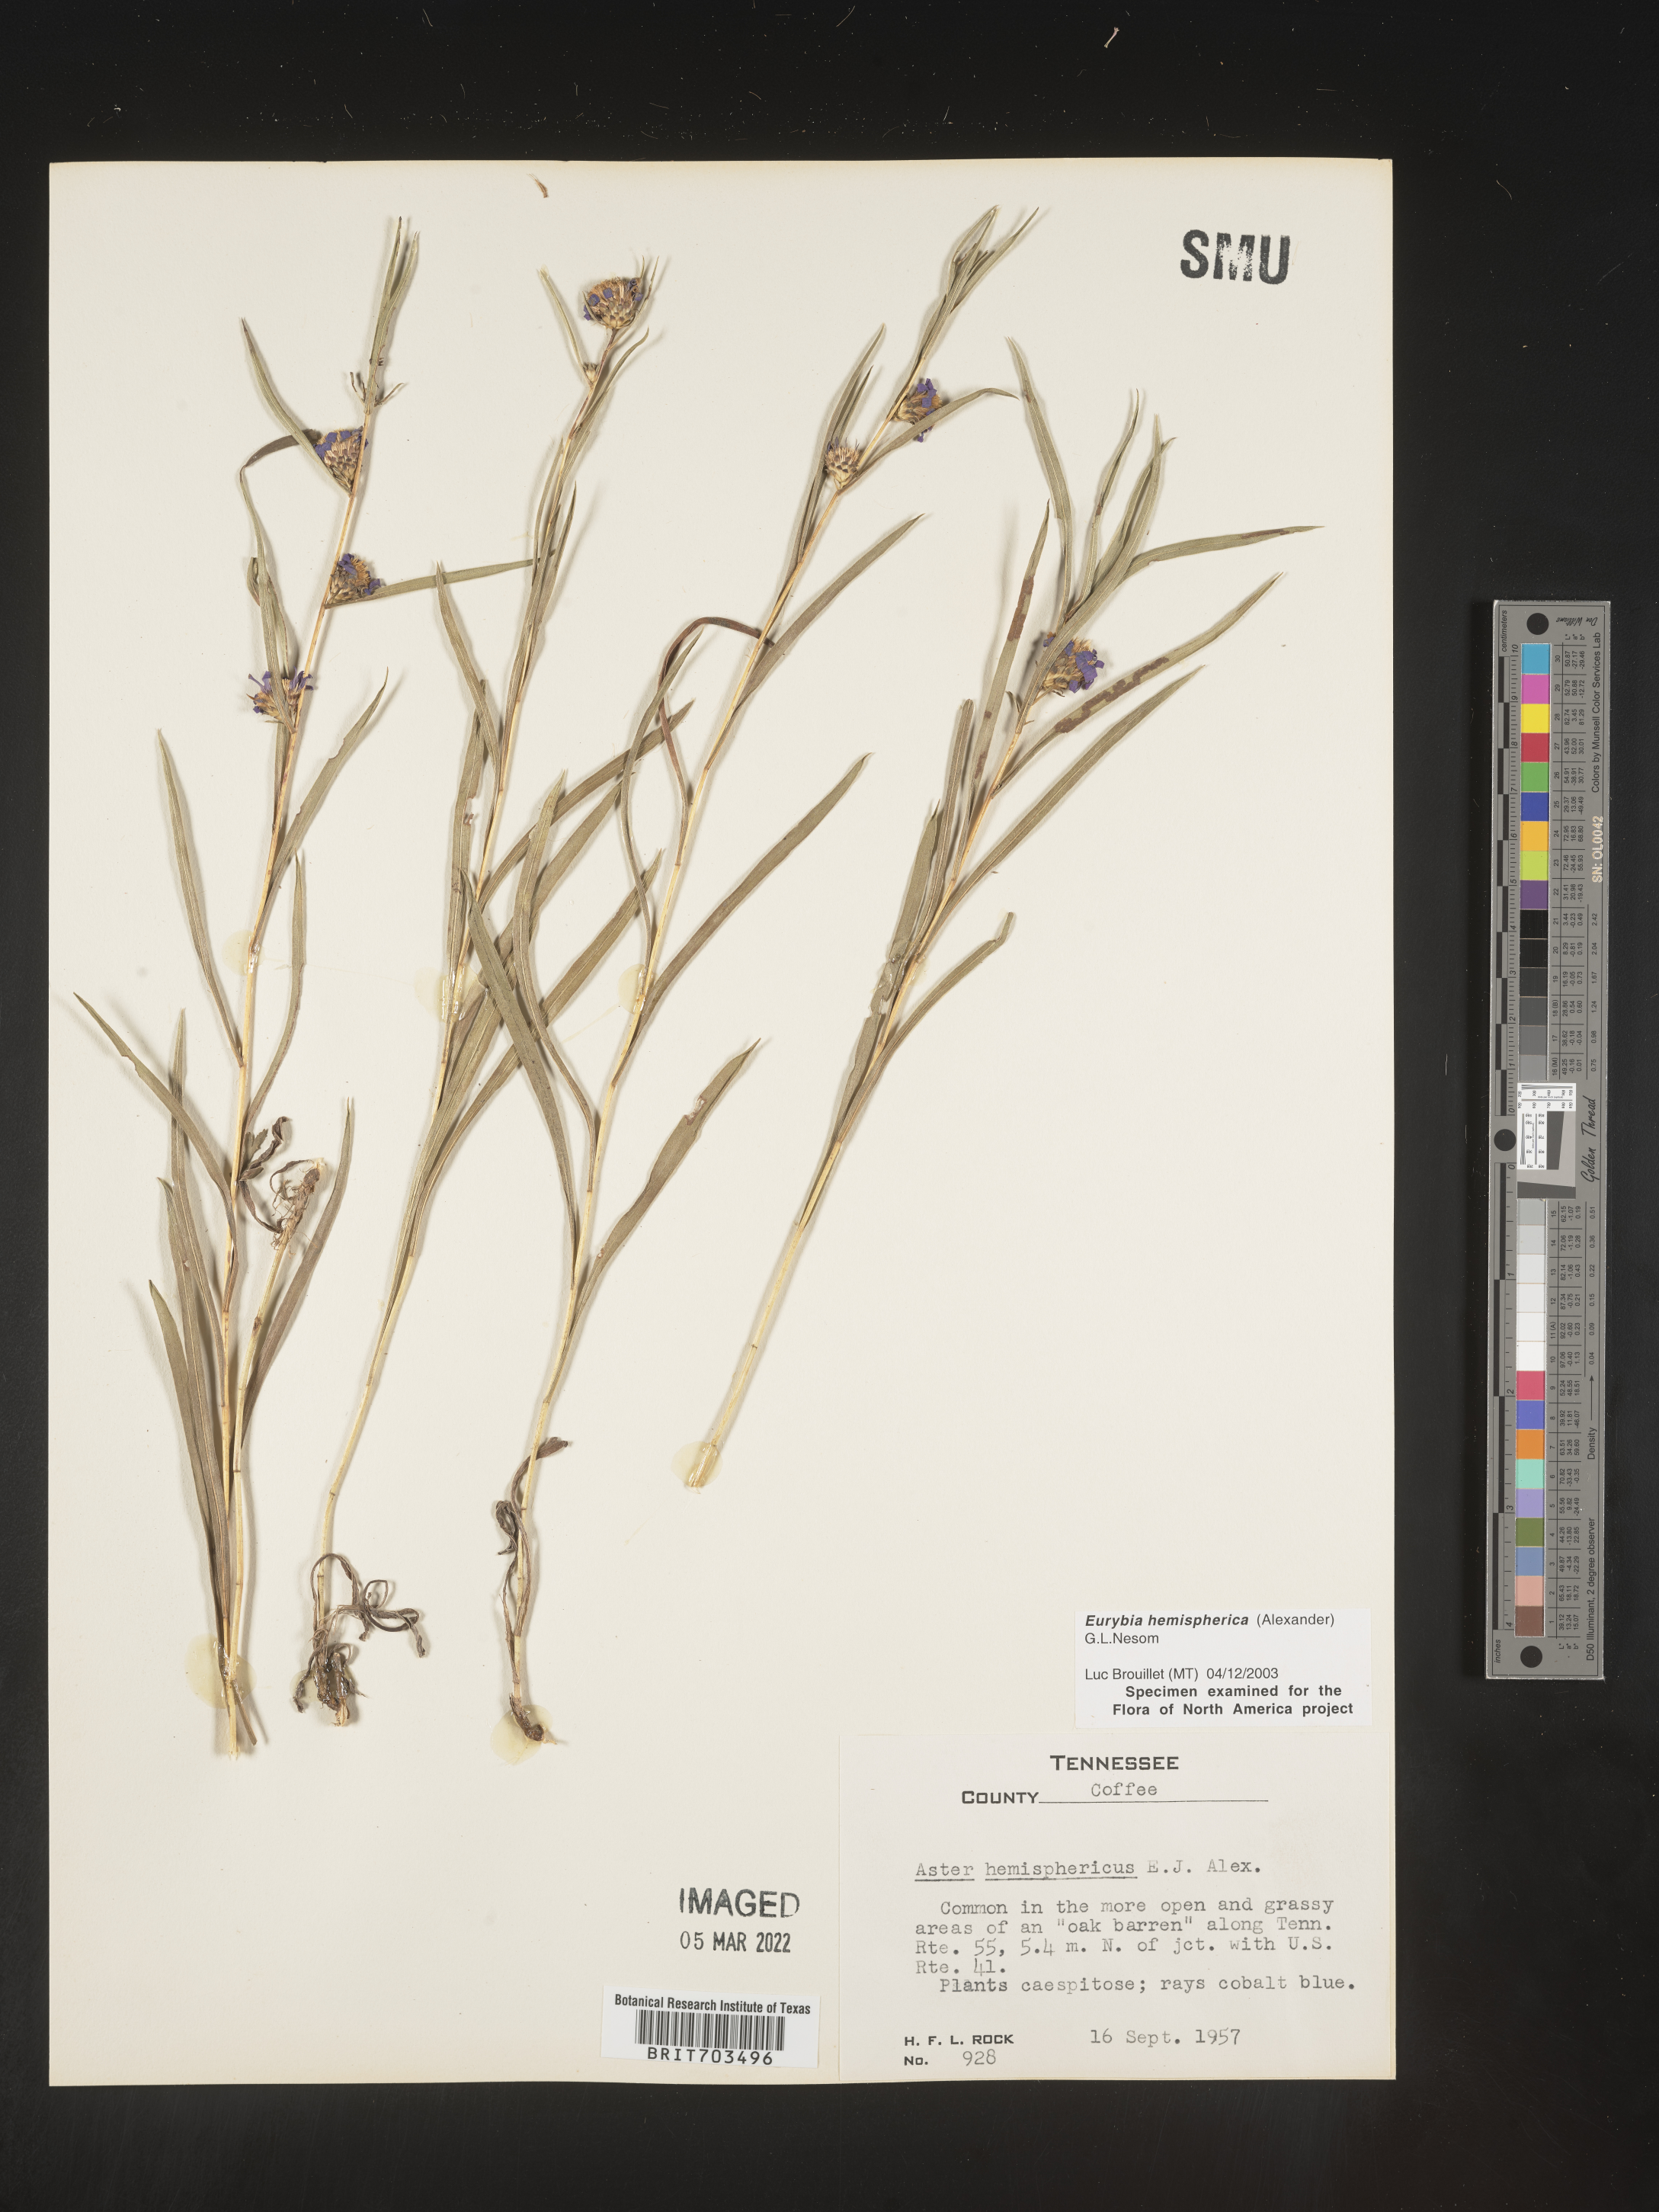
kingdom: Plantae
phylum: Tracheophyta
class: Magnoliopsida
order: Asterales
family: Asteraceae
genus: Eurybia
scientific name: Eurybia hemispherica
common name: Showy aster
